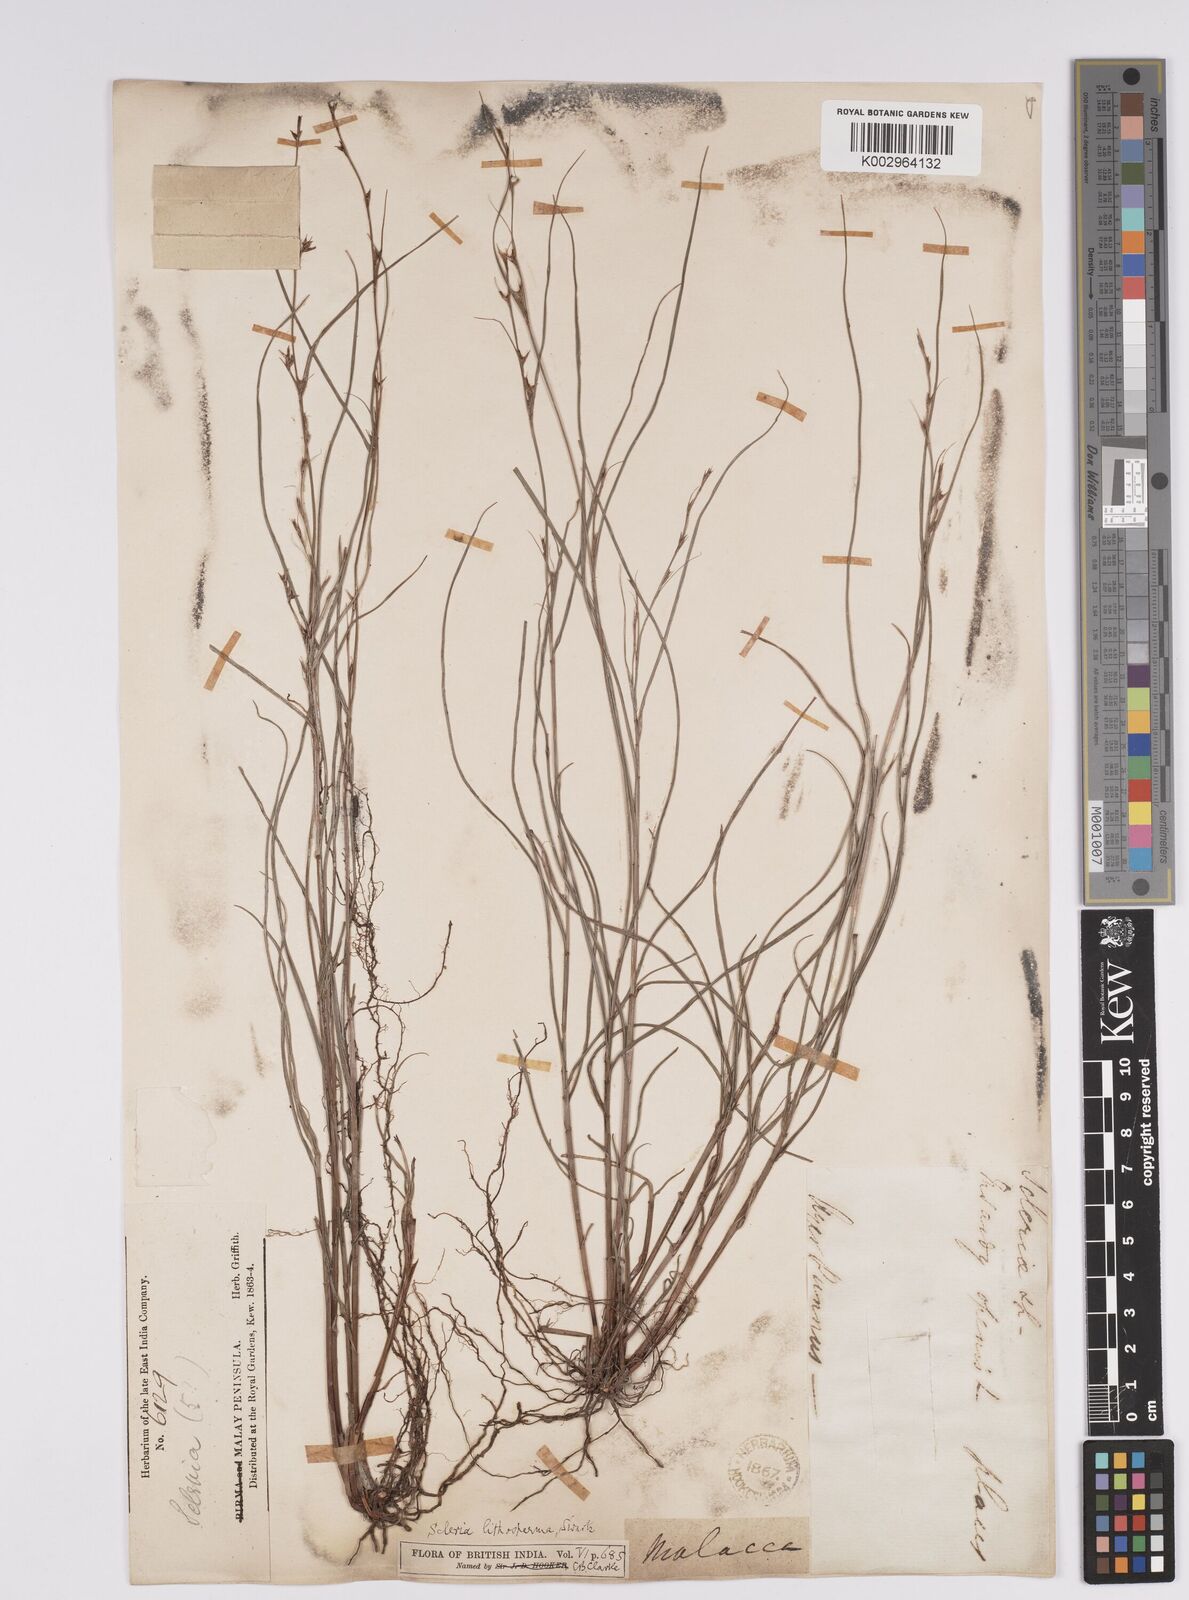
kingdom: Plantae
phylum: Tracheophyta
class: Liliopsida
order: Poales
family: Cyperaceae
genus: Scleria
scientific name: Scleria lithosperma
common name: Florida keys nut-rush
